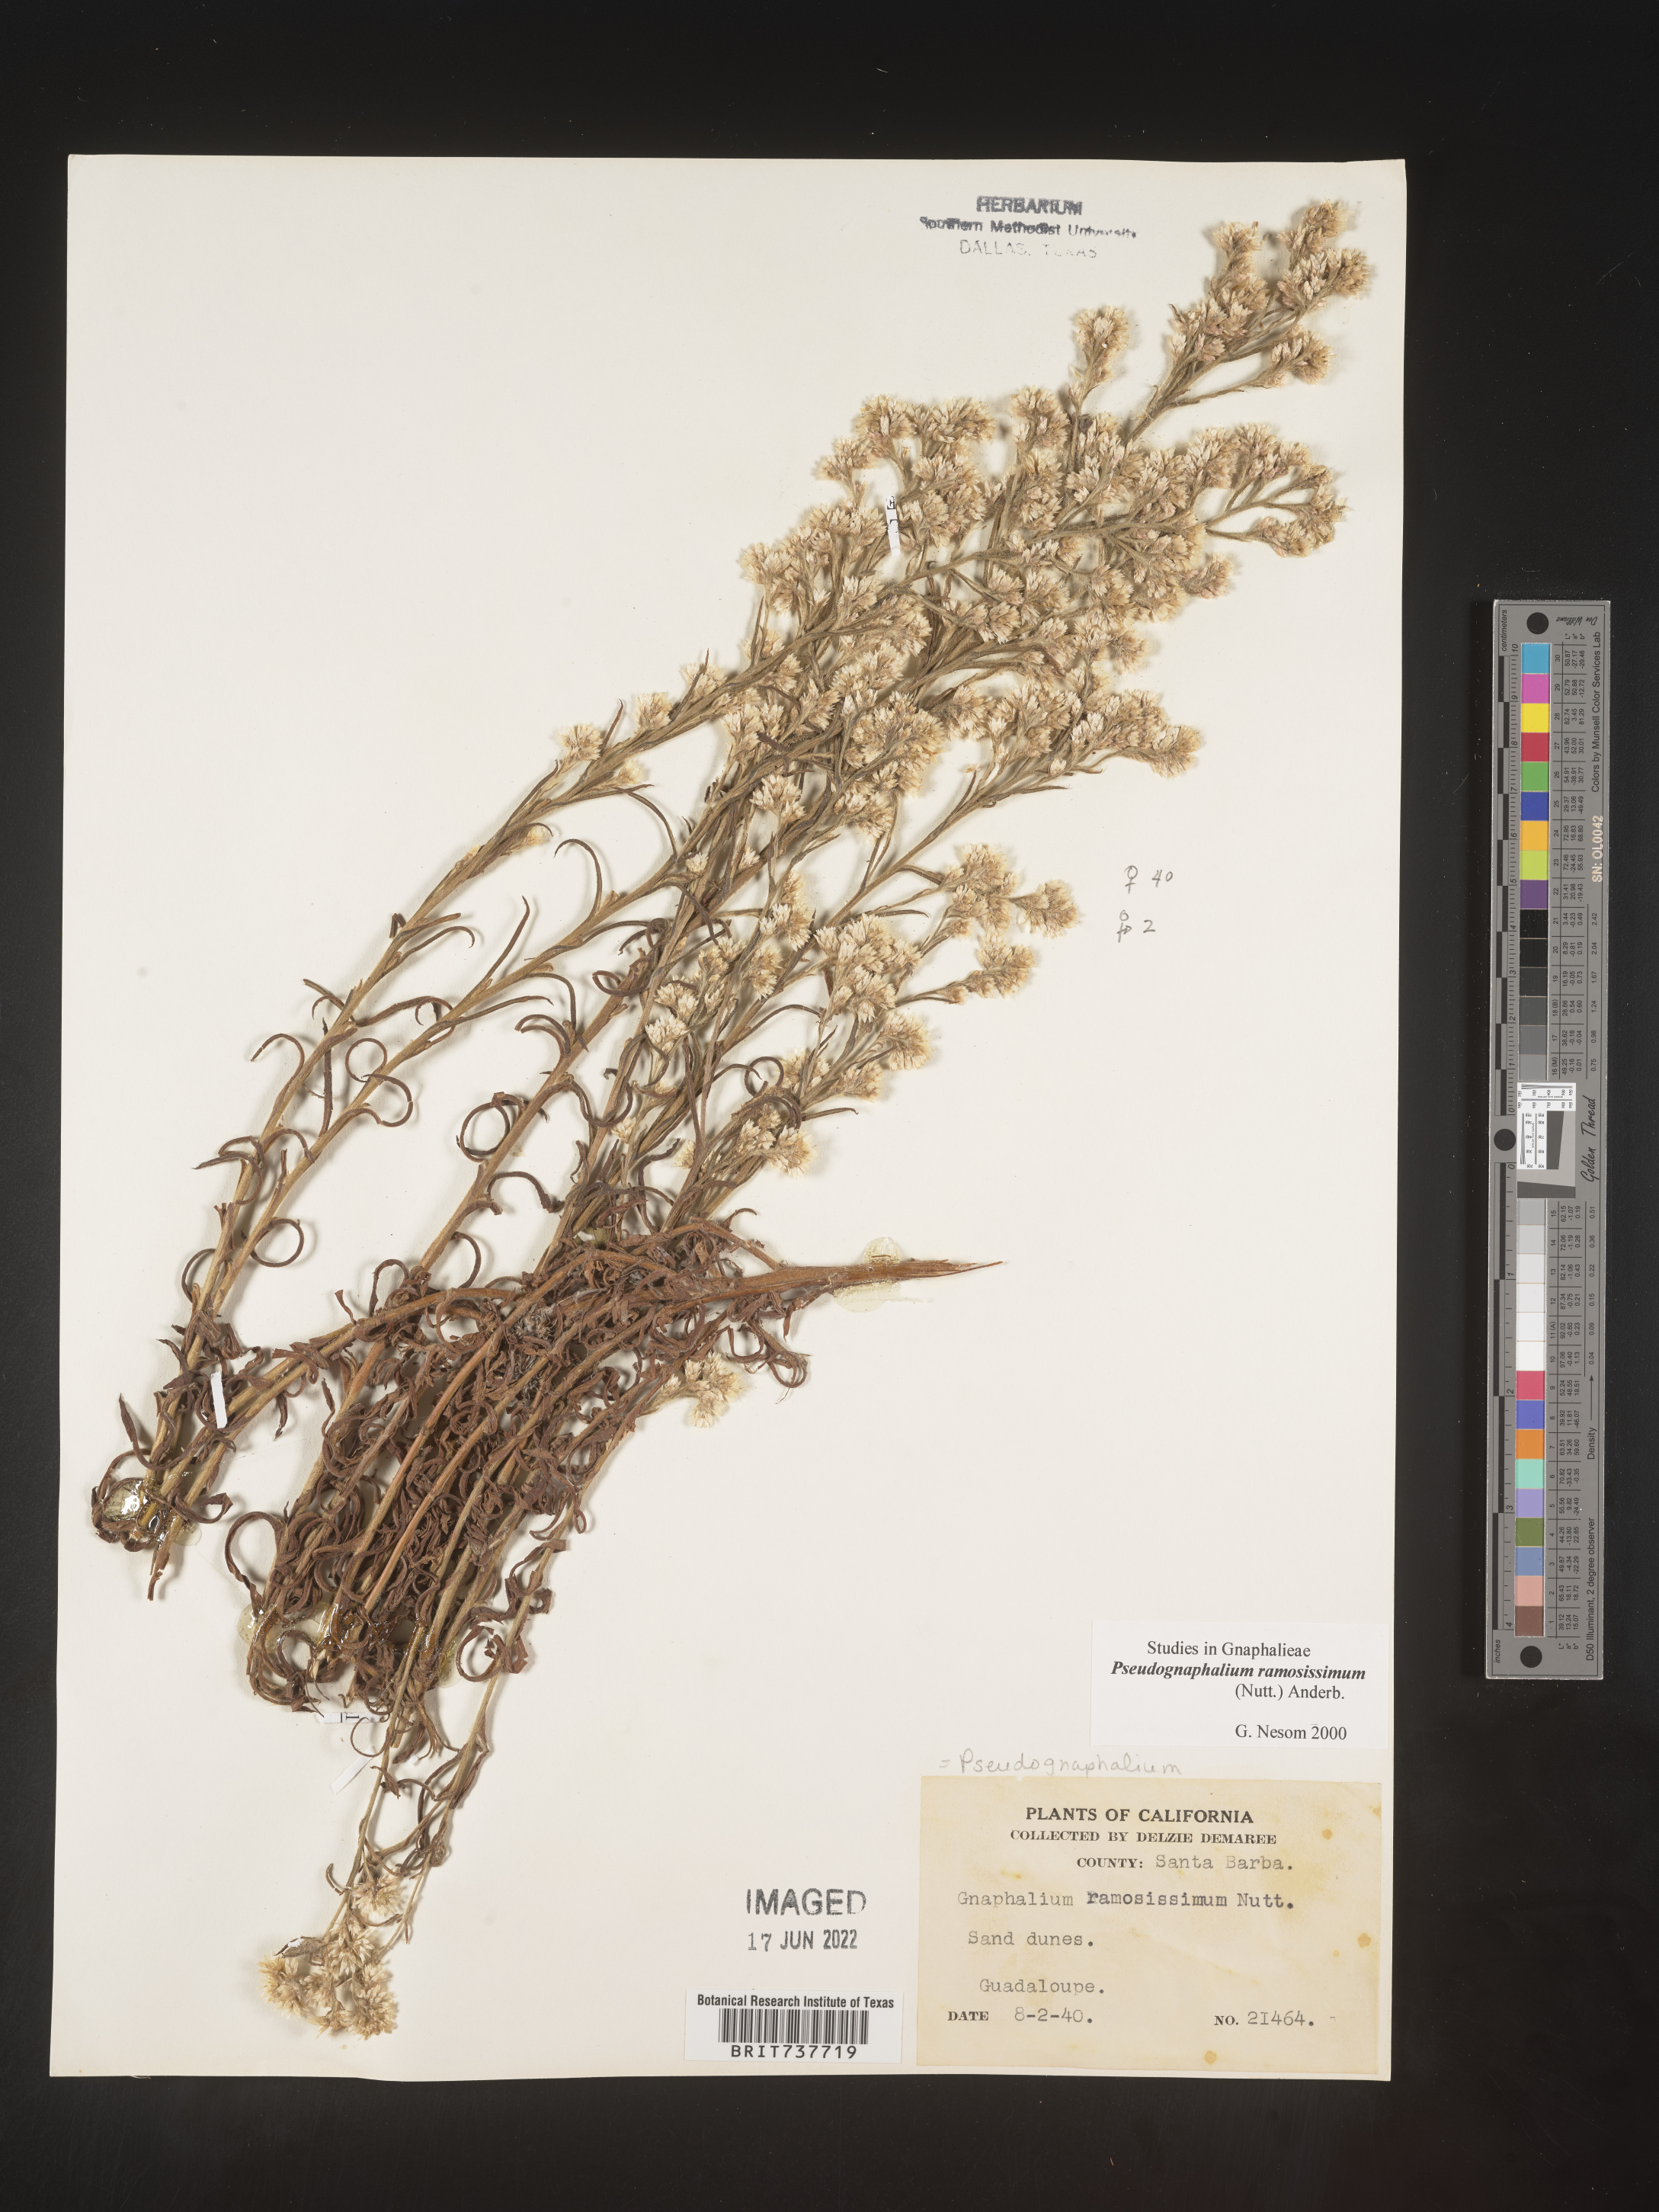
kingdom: Plantae
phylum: Tracheophyta
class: Magnoliopsida
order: Asterales
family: Asteraceae
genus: Pseudognaphalium
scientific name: Pseudognaphalium ramosissimum
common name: Pink rabbit-tobacco
